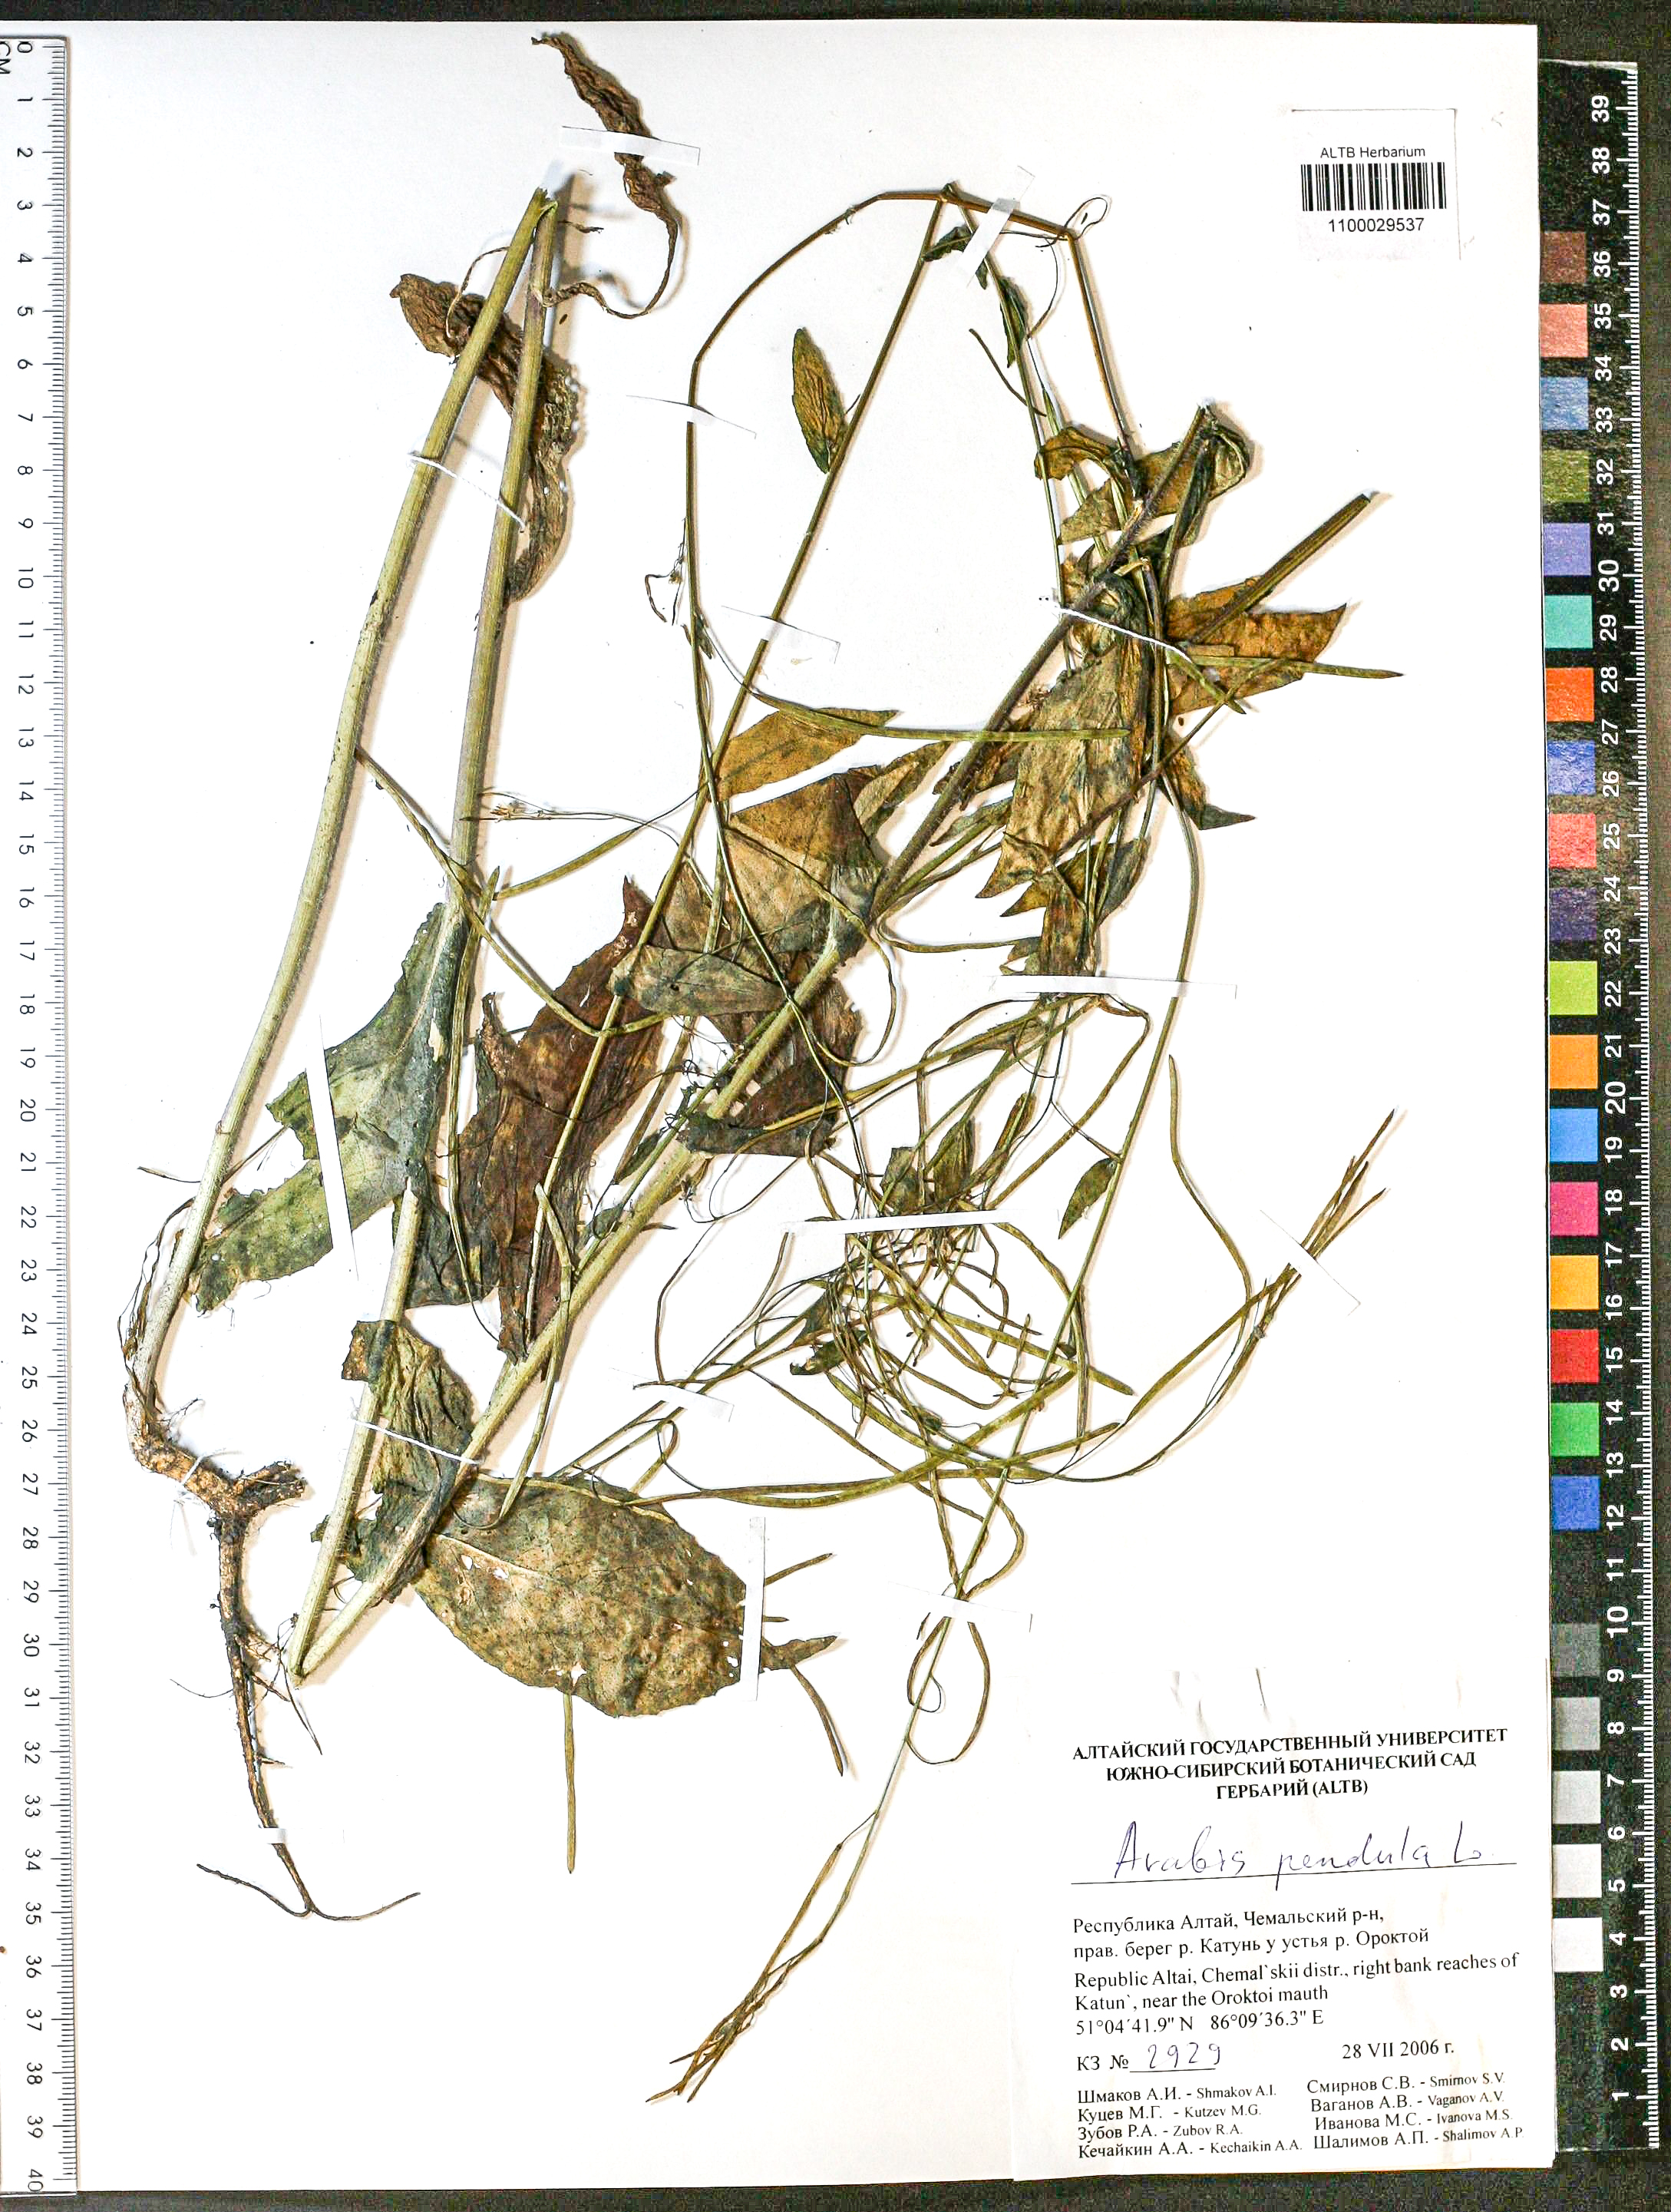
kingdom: Plantae
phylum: Tracheophyta
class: Magnoliopsida
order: Brassicales
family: Brassicaceae
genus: Catolobus
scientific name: Catolobus pendulus
